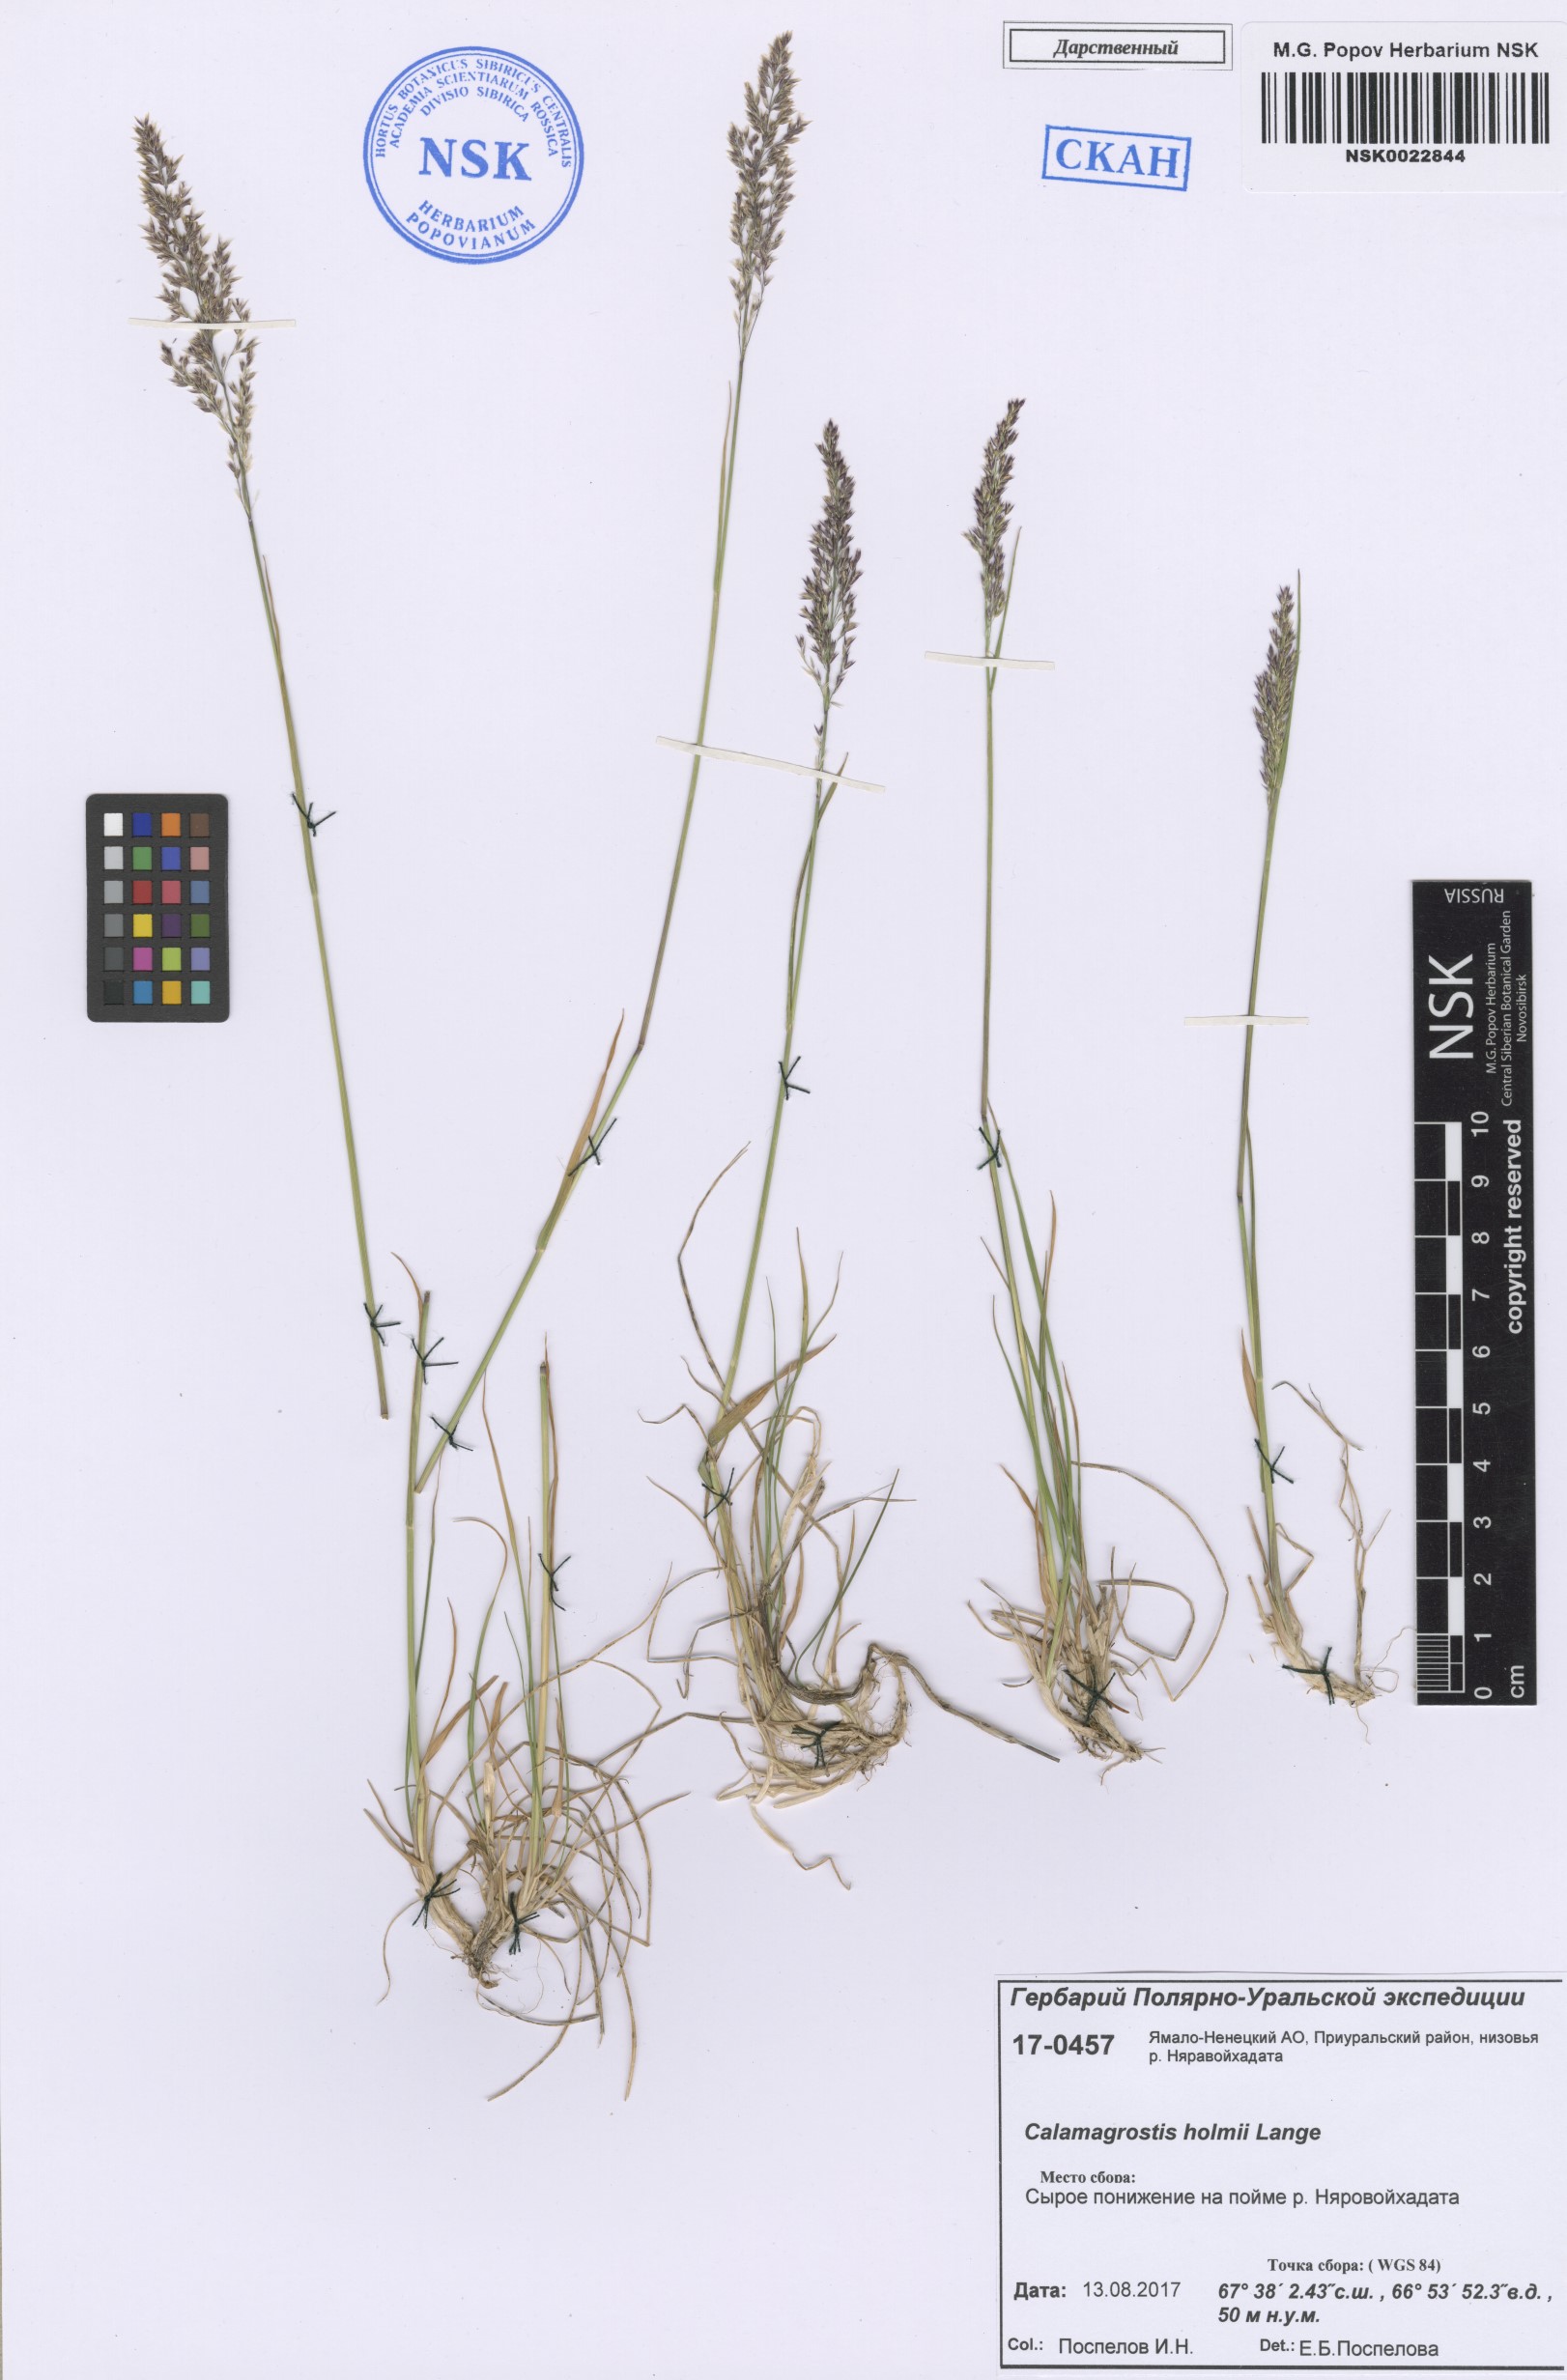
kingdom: Plantae
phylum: Tracheophyta
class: Liliopsida
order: Poales
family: Poaceae
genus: Calamagrostis
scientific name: Calamagrostis holmii
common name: Holm's reedgrass
